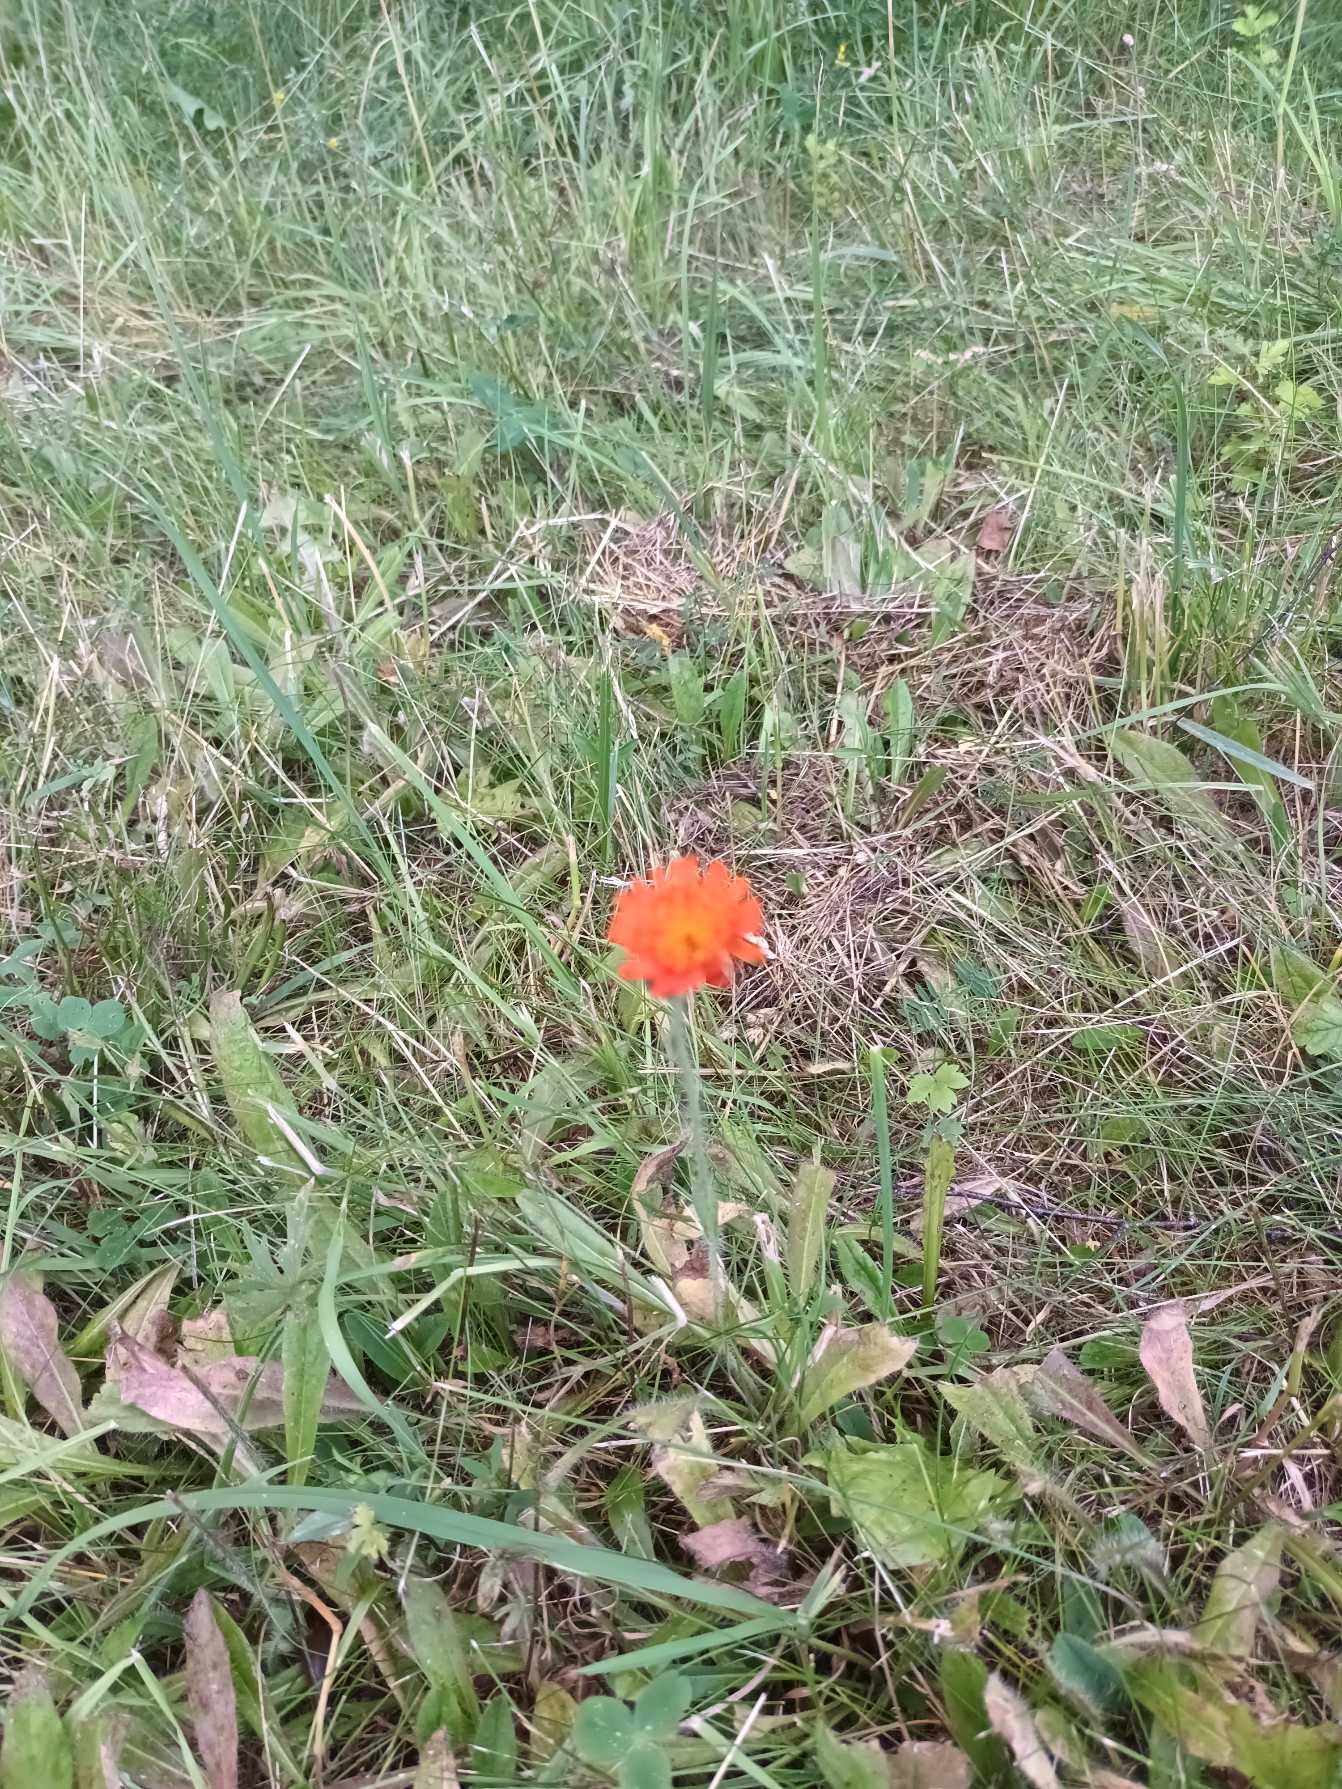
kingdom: Plantae
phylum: Tracheophyta
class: Magnoliopsida
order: Asterales
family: Asteraceae
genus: Pilosella
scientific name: Pilosella aurantiaca
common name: Pomerans-høgeurt
